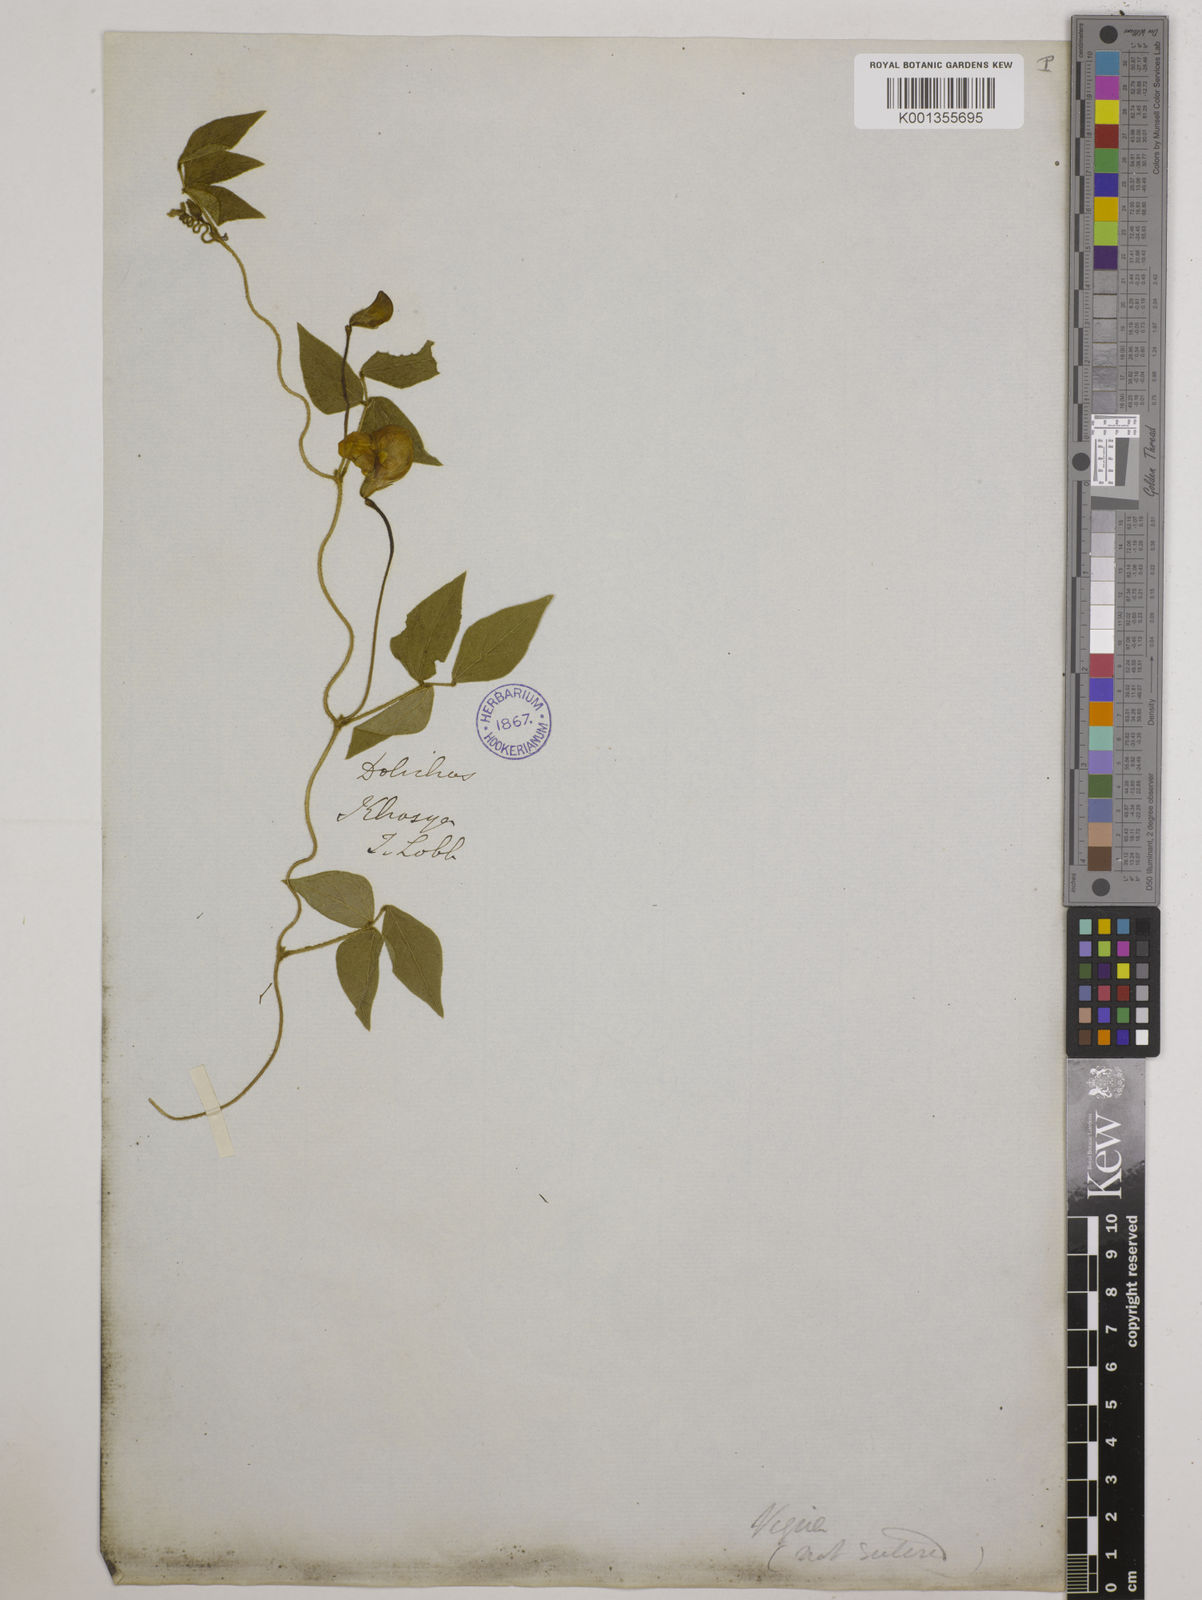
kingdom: Plantae
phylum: Tracheophyta
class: Magnoliopsida
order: Fabales
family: Fabaceae
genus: Vigna
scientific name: Vigna vexillata
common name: Zombi pea
